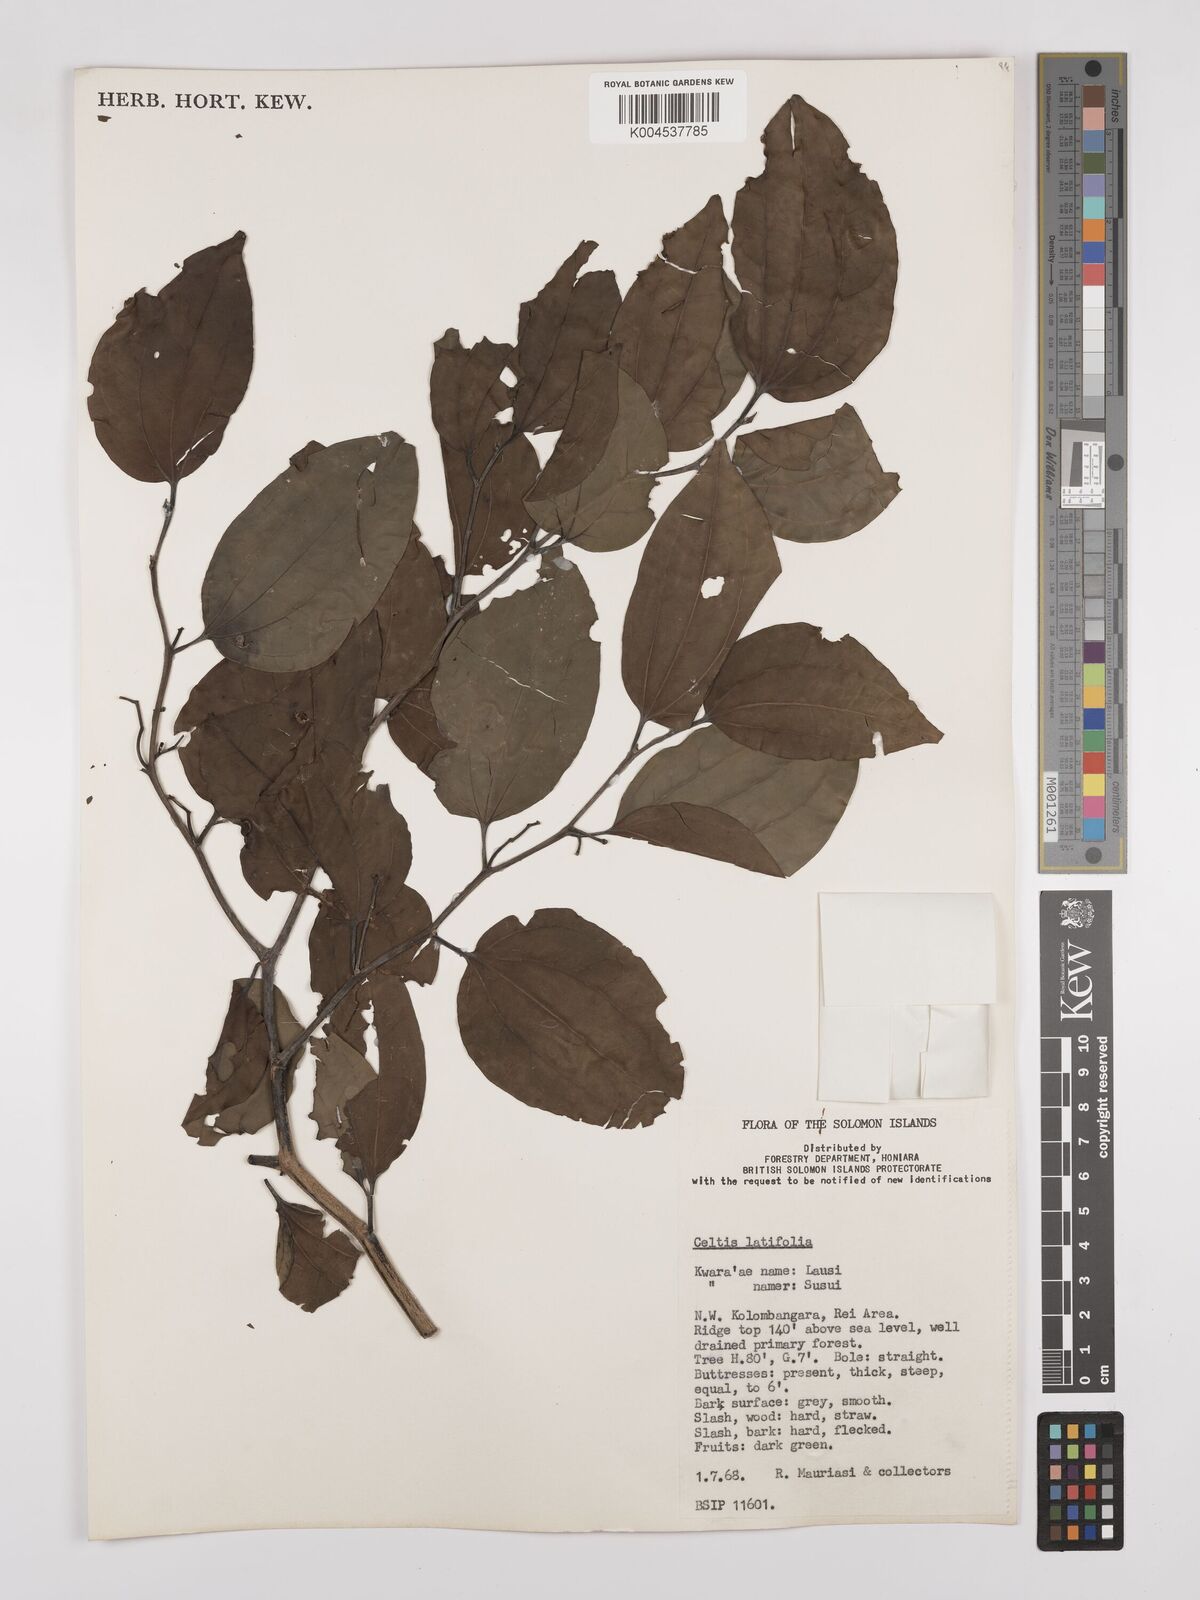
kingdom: Plantae
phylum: Tracheophyta
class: Magnoliopsida
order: Rosales
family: Cannabaceae
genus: Celtis
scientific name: Celtis latifolia
